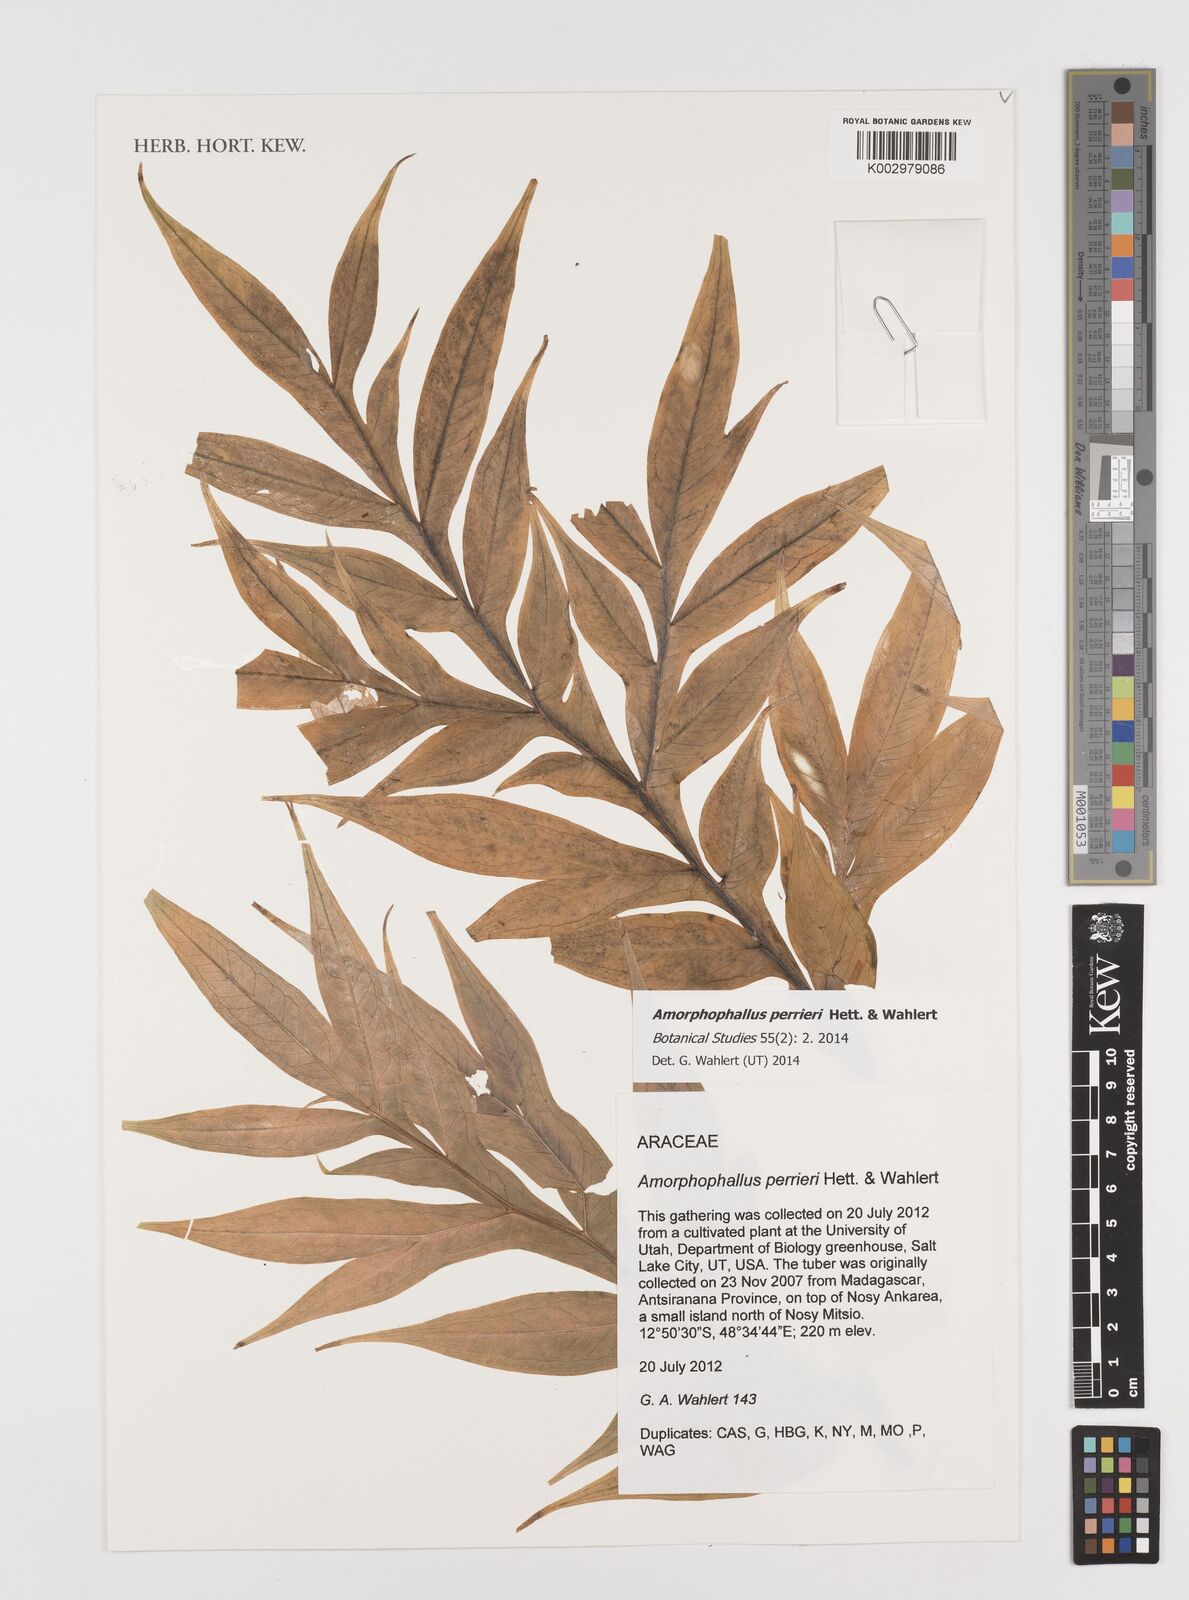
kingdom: Plantae
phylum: Tracheophyta
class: Liliopsida
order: Alismatales
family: Araceae
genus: Amorphophallus
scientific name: Amorphophallus perrieri
